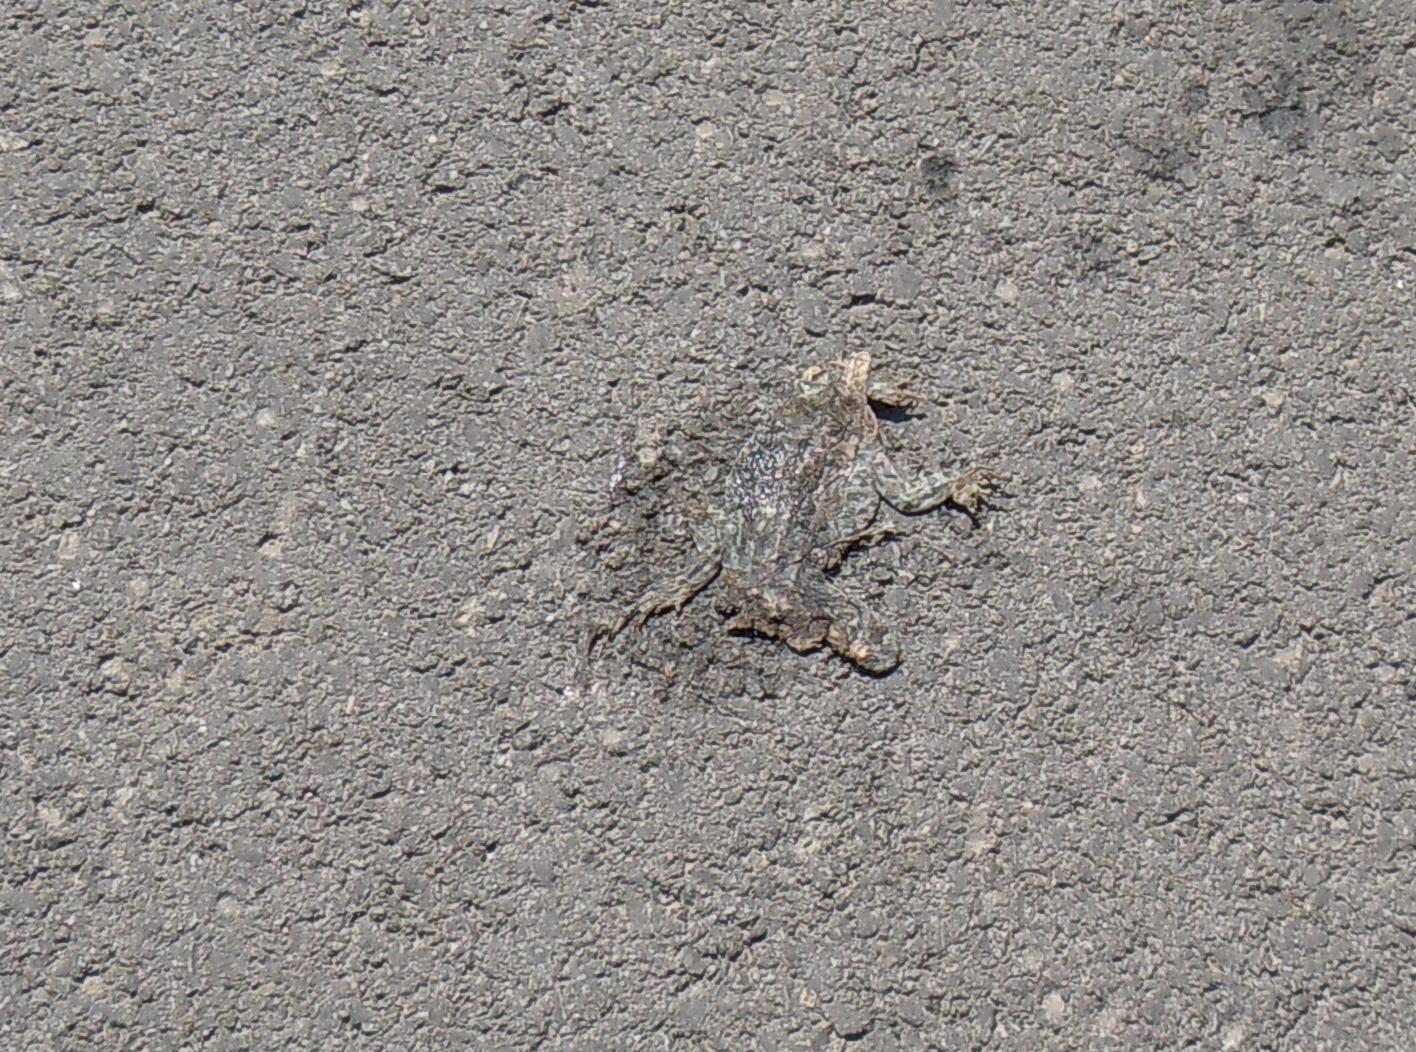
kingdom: Animalia
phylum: Chordata
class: Amphibia
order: Anura
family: Bufonidae
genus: Bufotes
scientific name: Bufotes viridis
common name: European green toad
